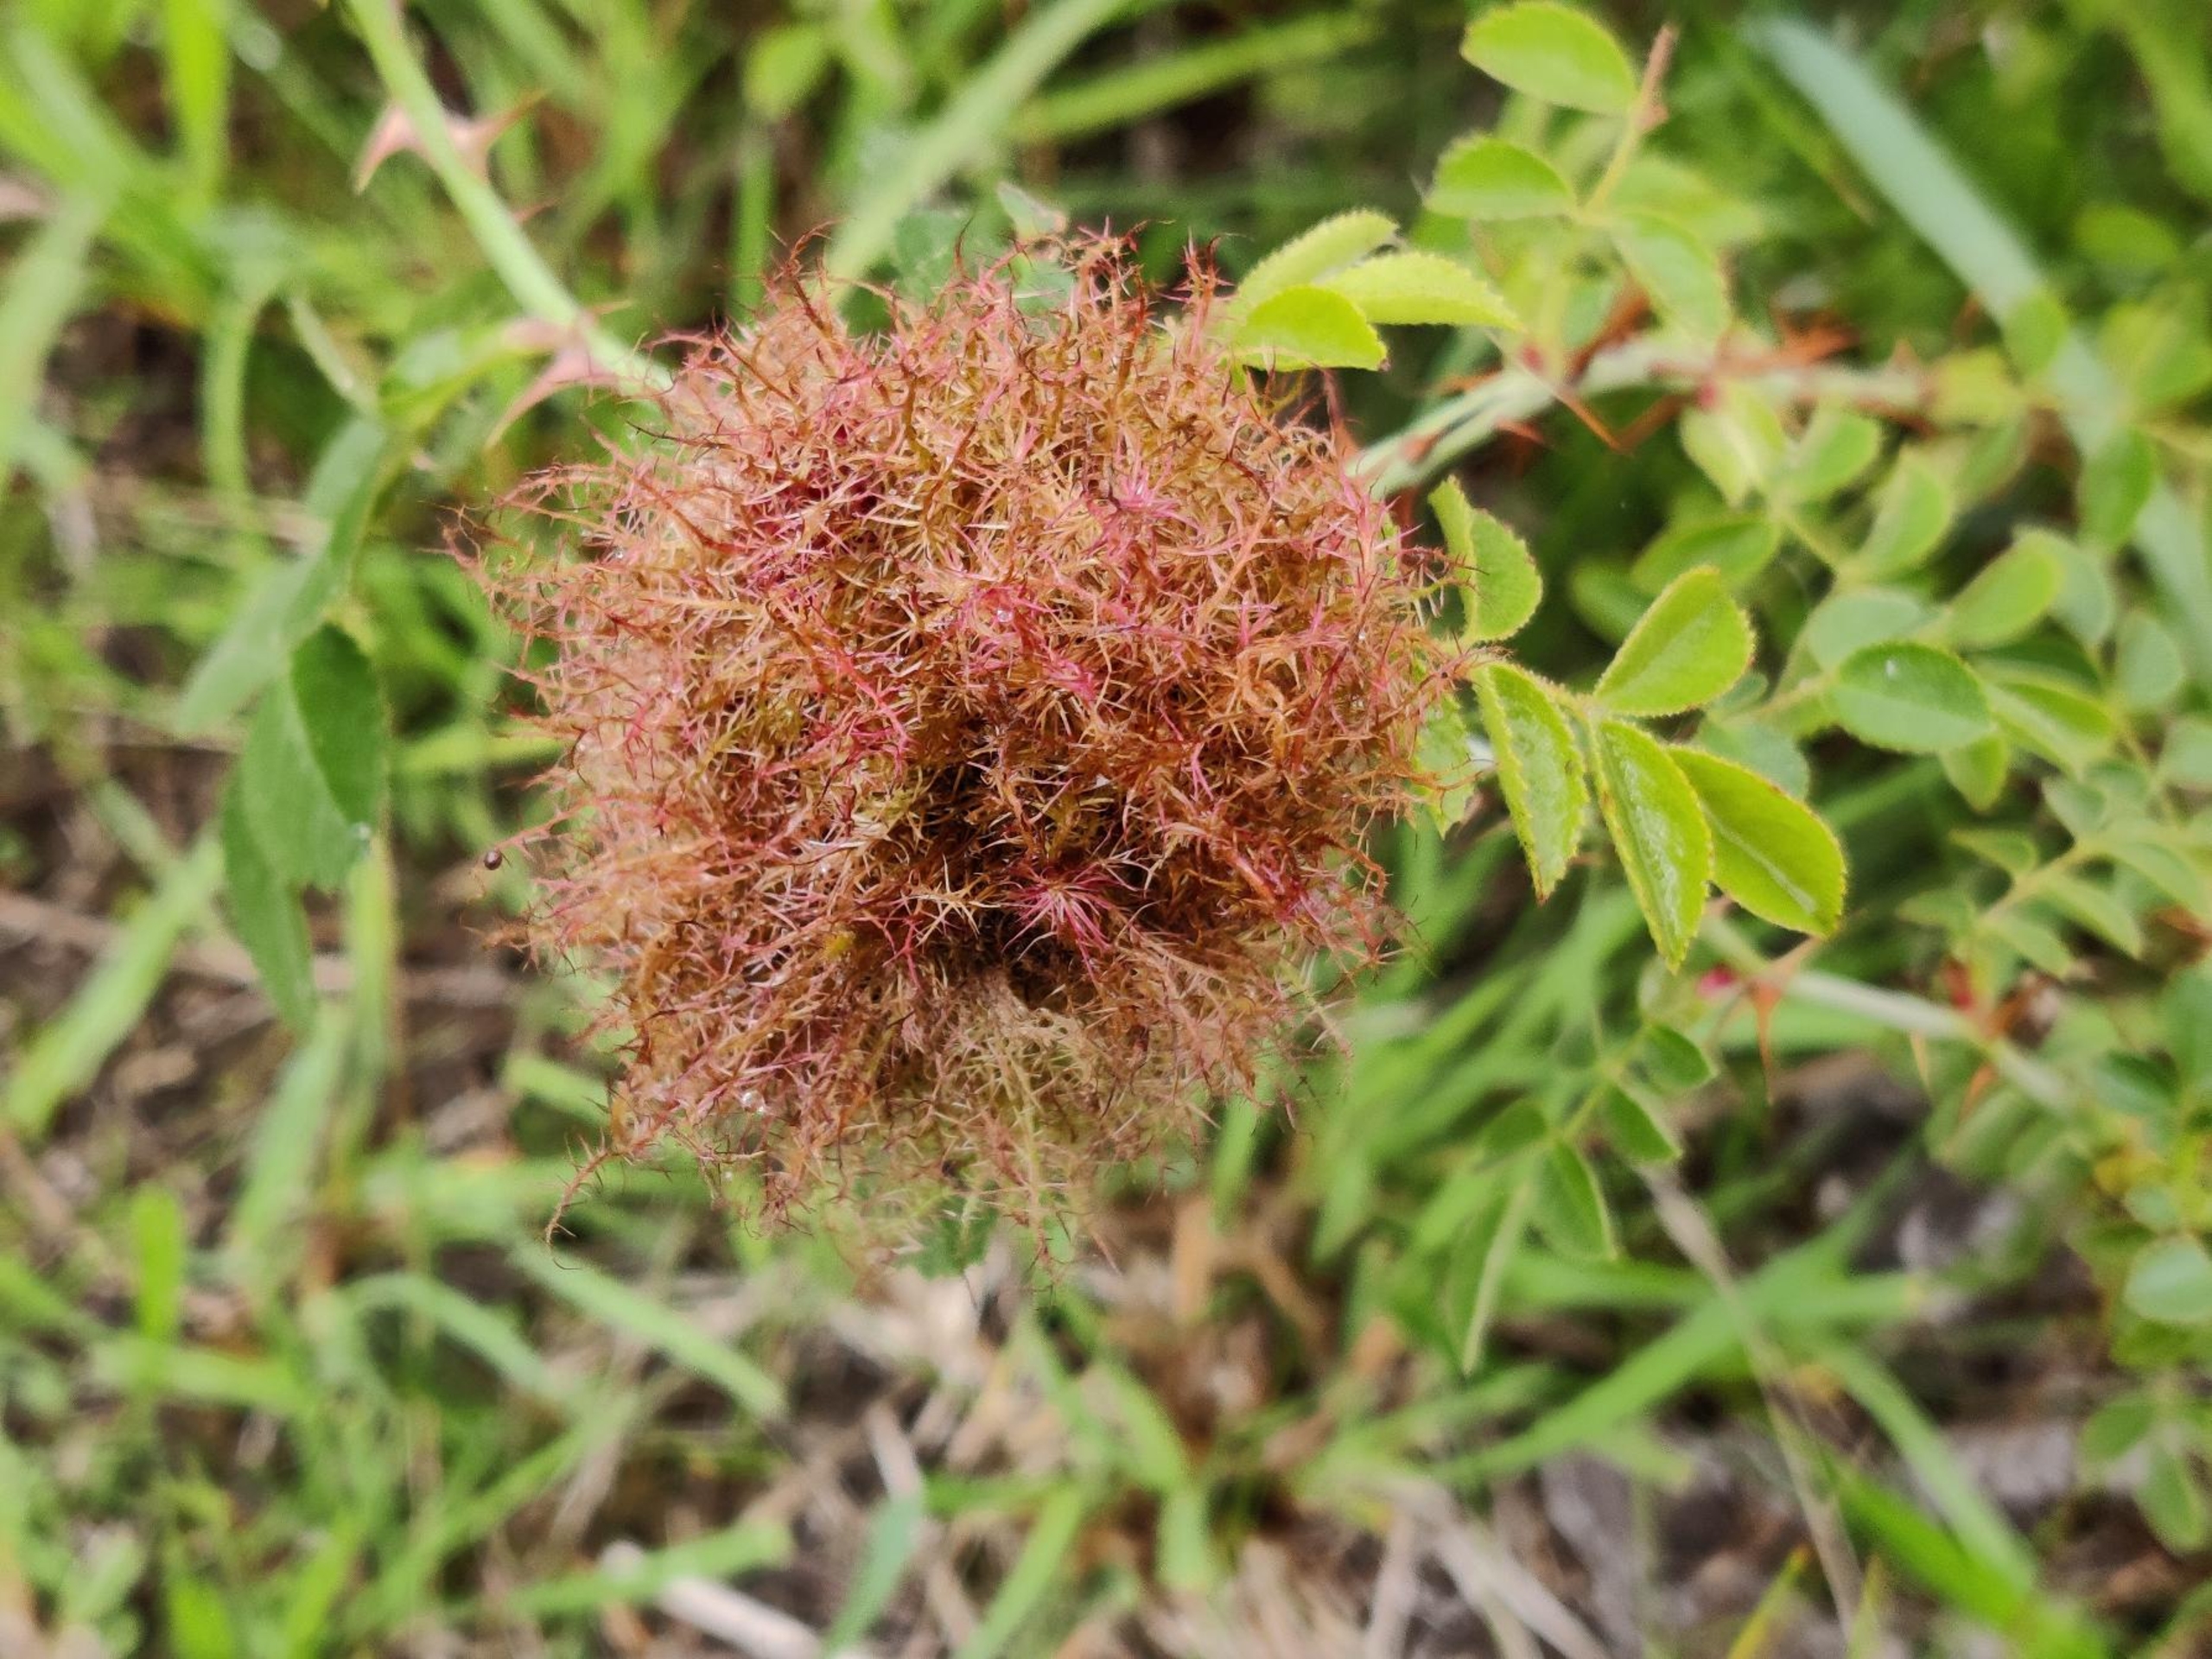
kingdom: Animalia
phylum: Arthropoda
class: Insecta
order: Hymenoptera
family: Cynipidae
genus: Diplolepis
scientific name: Diplolepis rosae
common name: Bedeguargalhveps
